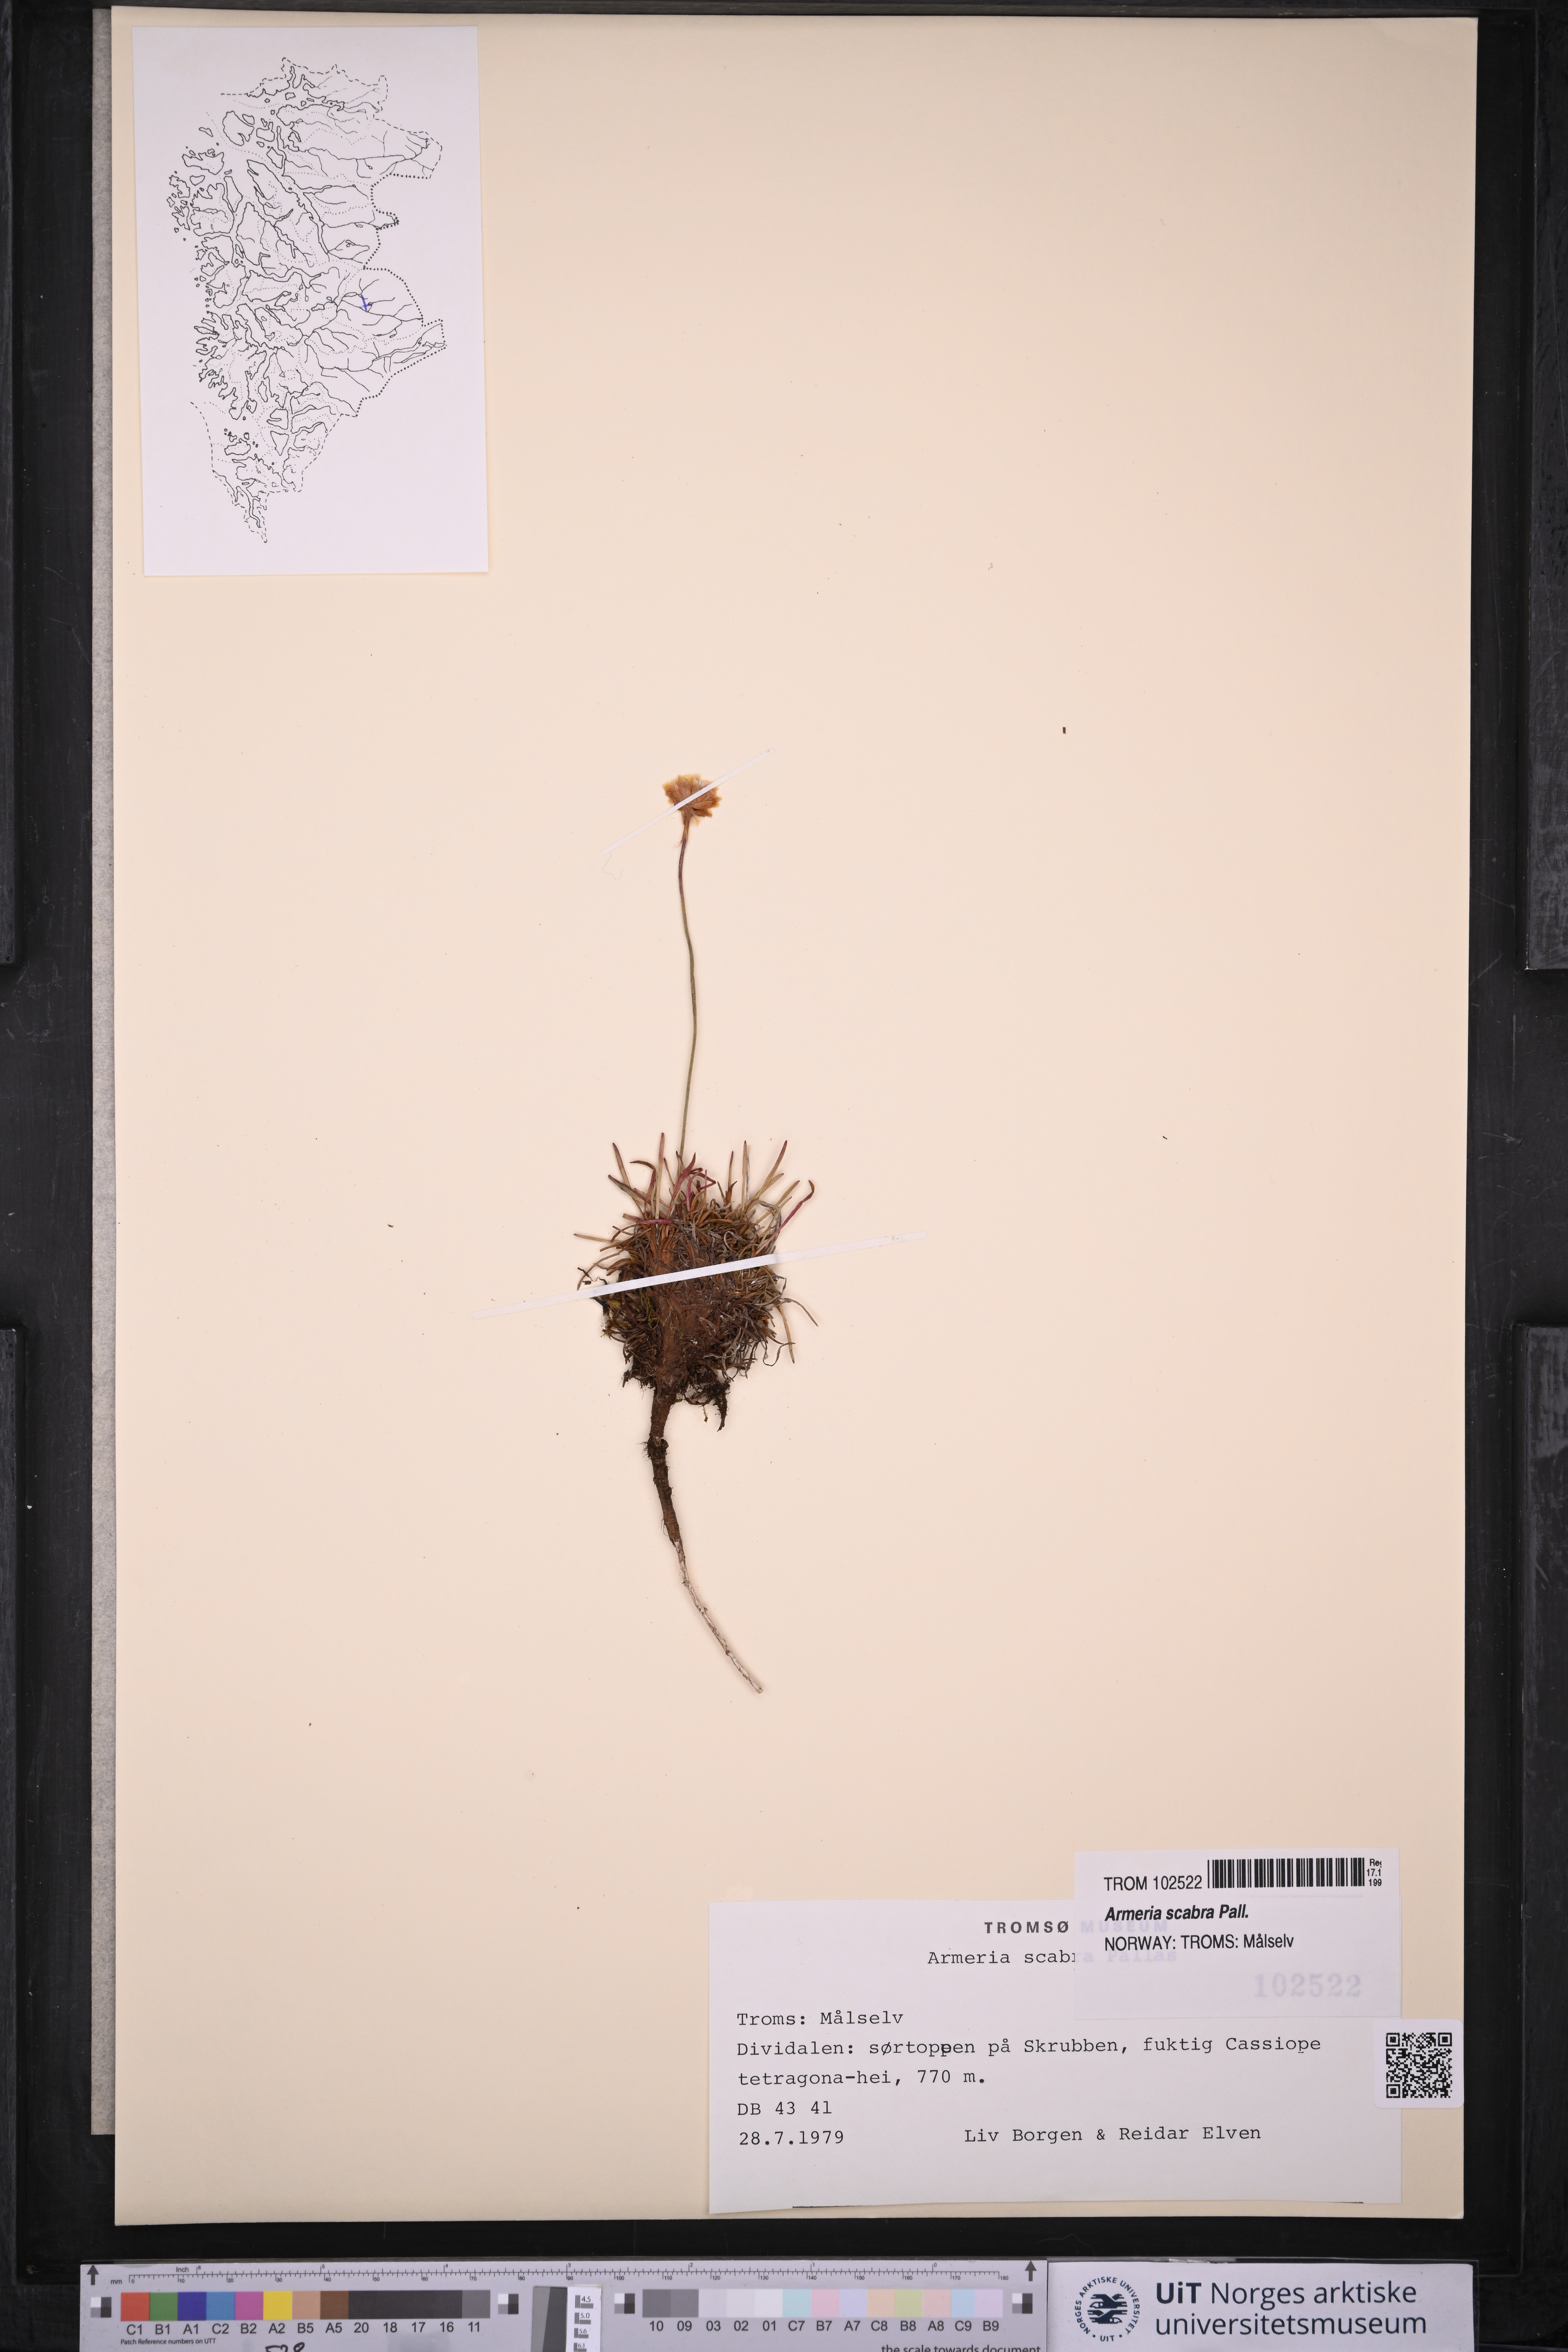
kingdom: Plantae
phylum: Tracheophyta
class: Magnoliopsida
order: Caryophyllales
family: Plumbaginaceae
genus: Armeria
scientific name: Armeria maritima
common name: Thrift
